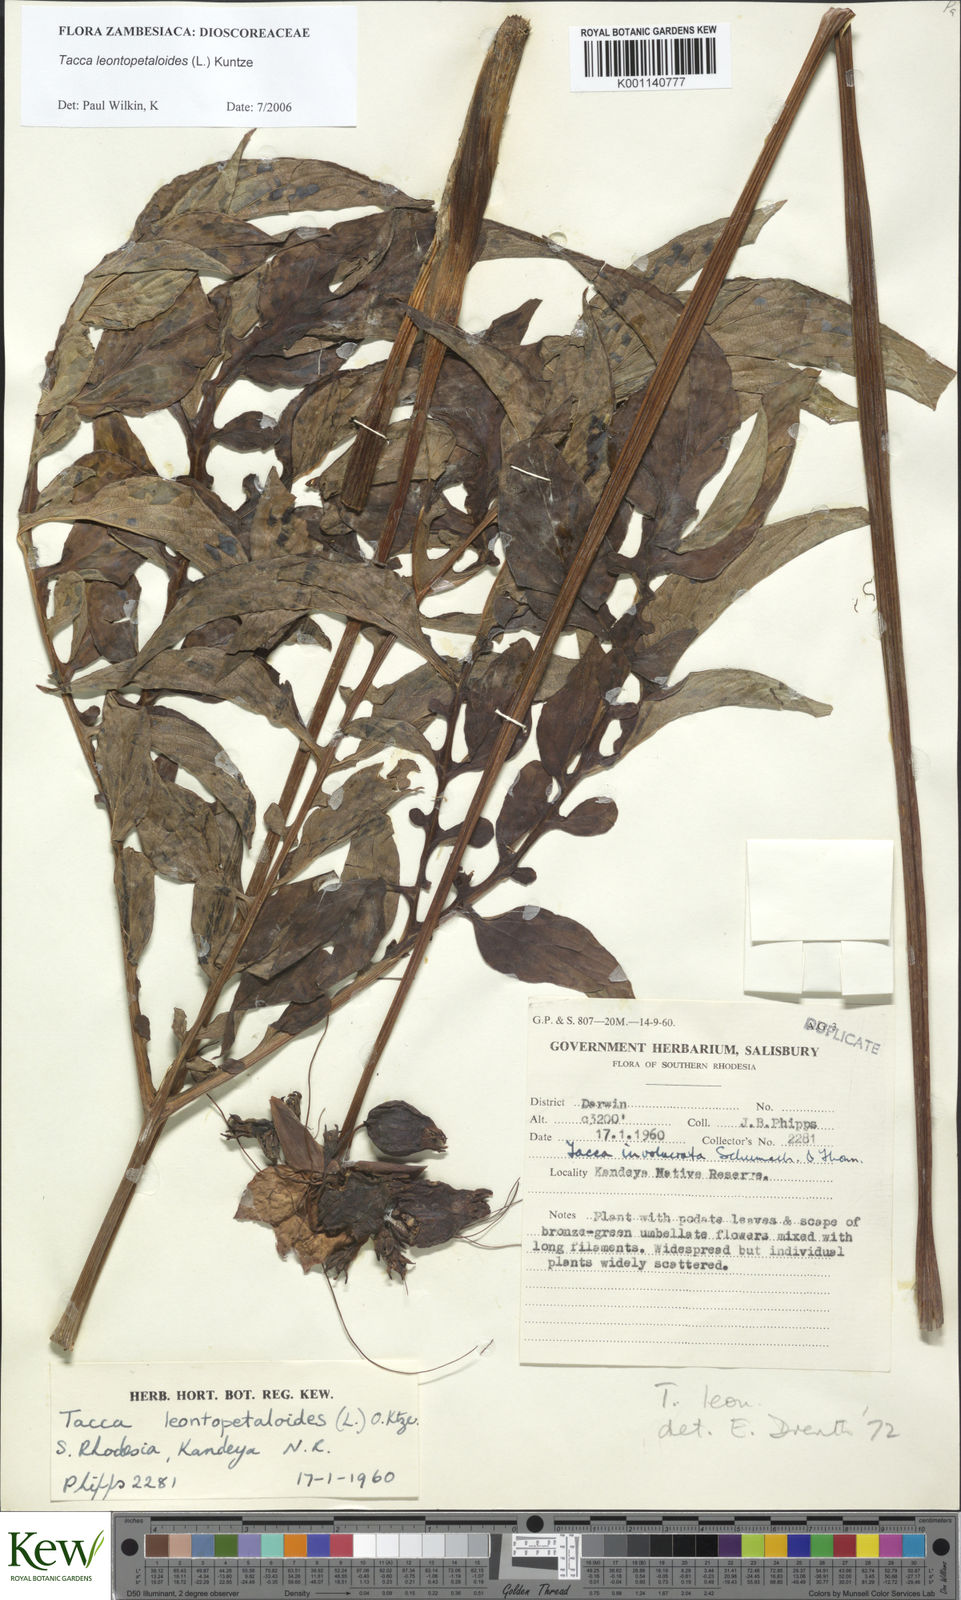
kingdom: Plantae
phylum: Tracheophyta
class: Liliopsida
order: Dioscoreales
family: Dioscoreaceae
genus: Tacca
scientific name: Tacca leontopetaloides
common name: Arrowroot
